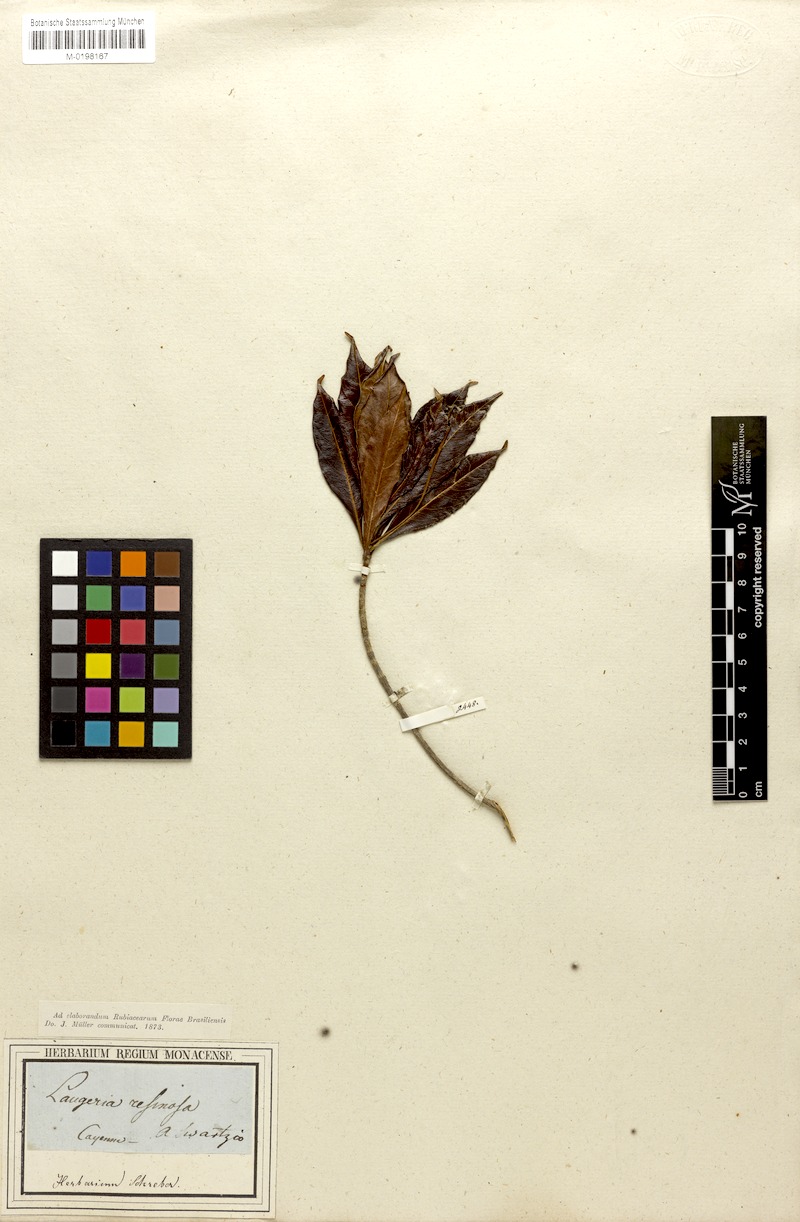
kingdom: Plantae
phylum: Tracheophyta
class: Magnoliopsida
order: Gentianales
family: Rubiaceae
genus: Stenostomum
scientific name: Stenostomum resinosum
